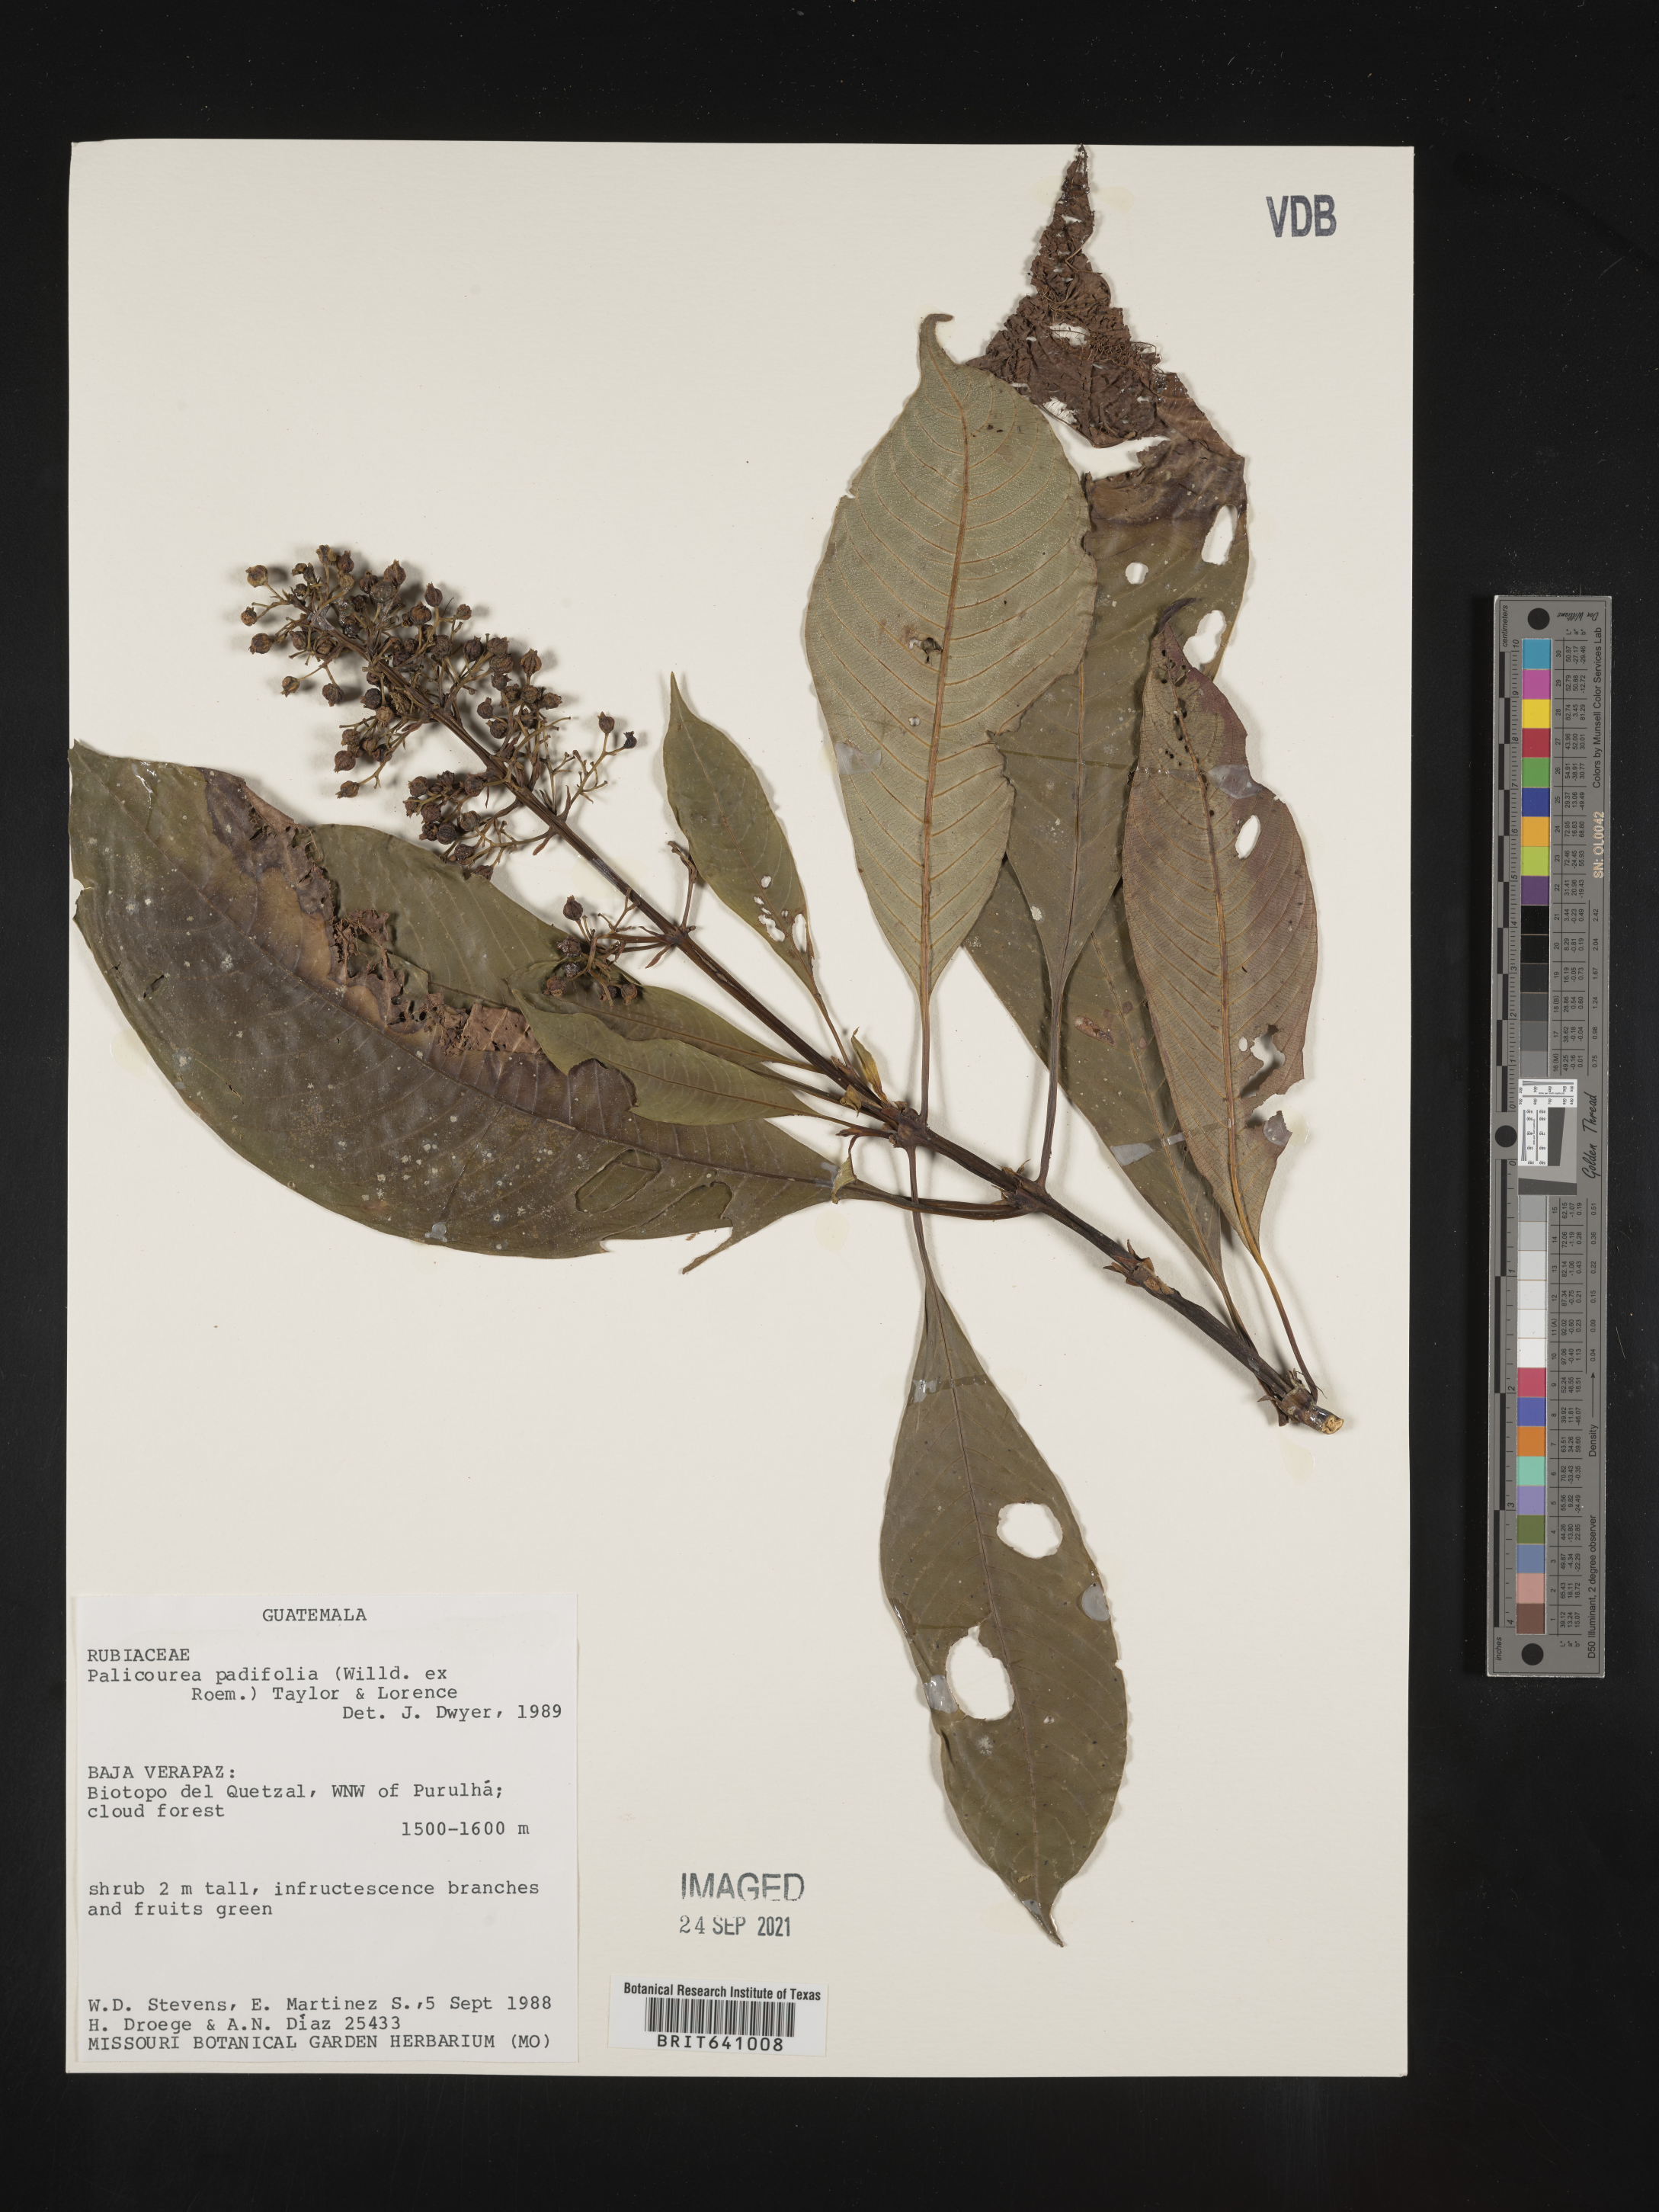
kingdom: Plantae
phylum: Tracheophyta
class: Magnoliopsida
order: Gentianales
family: Rubiaceae
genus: Palicourea
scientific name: Palicourea
